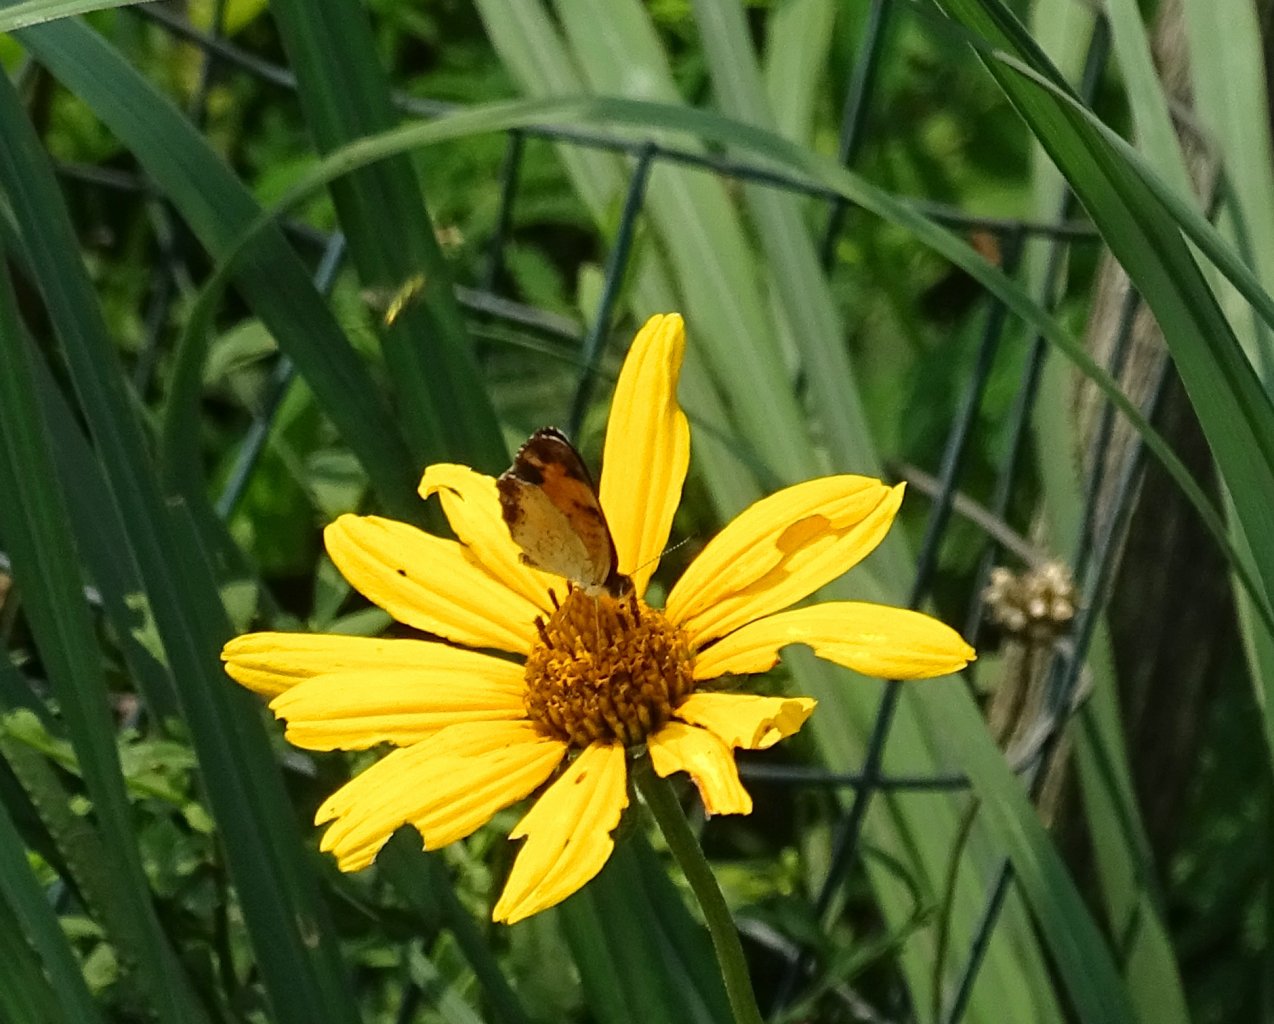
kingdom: Animalia
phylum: Arthropoda
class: Insecta
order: Lepidoptera
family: Nymphalidae
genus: Phyciodes
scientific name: Phyciodes tharos
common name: Pearl Crescent
